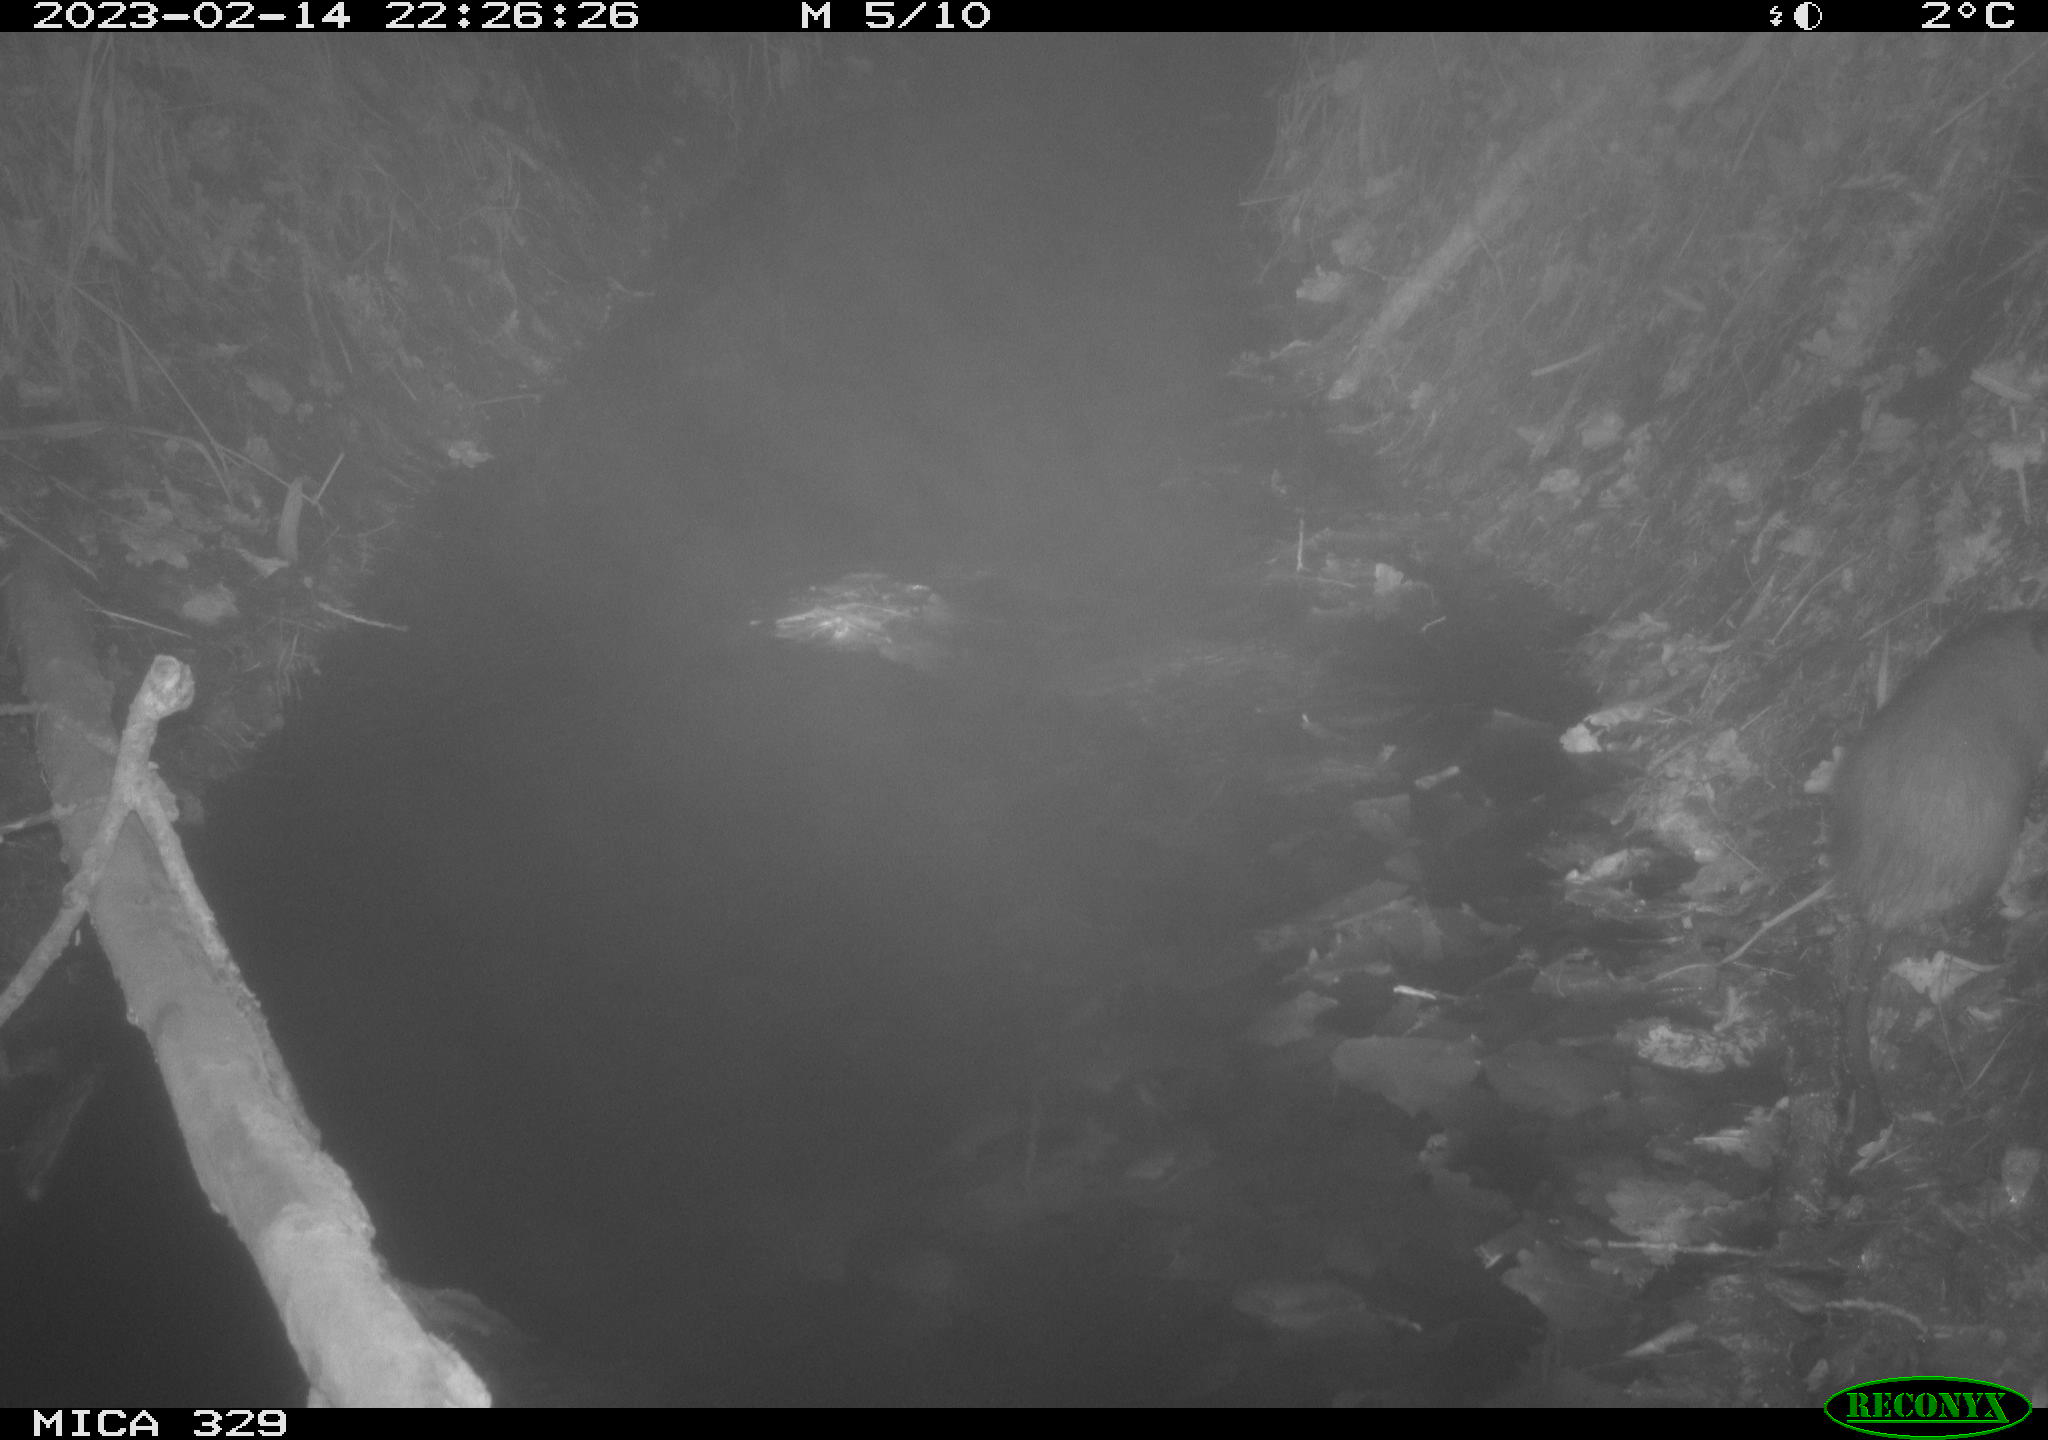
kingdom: Animalia
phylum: Chordata
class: Mammalia
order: Rodentia
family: Cricetidae
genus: Ondatra
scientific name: Ondatra zibethicus
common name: Muskrat
